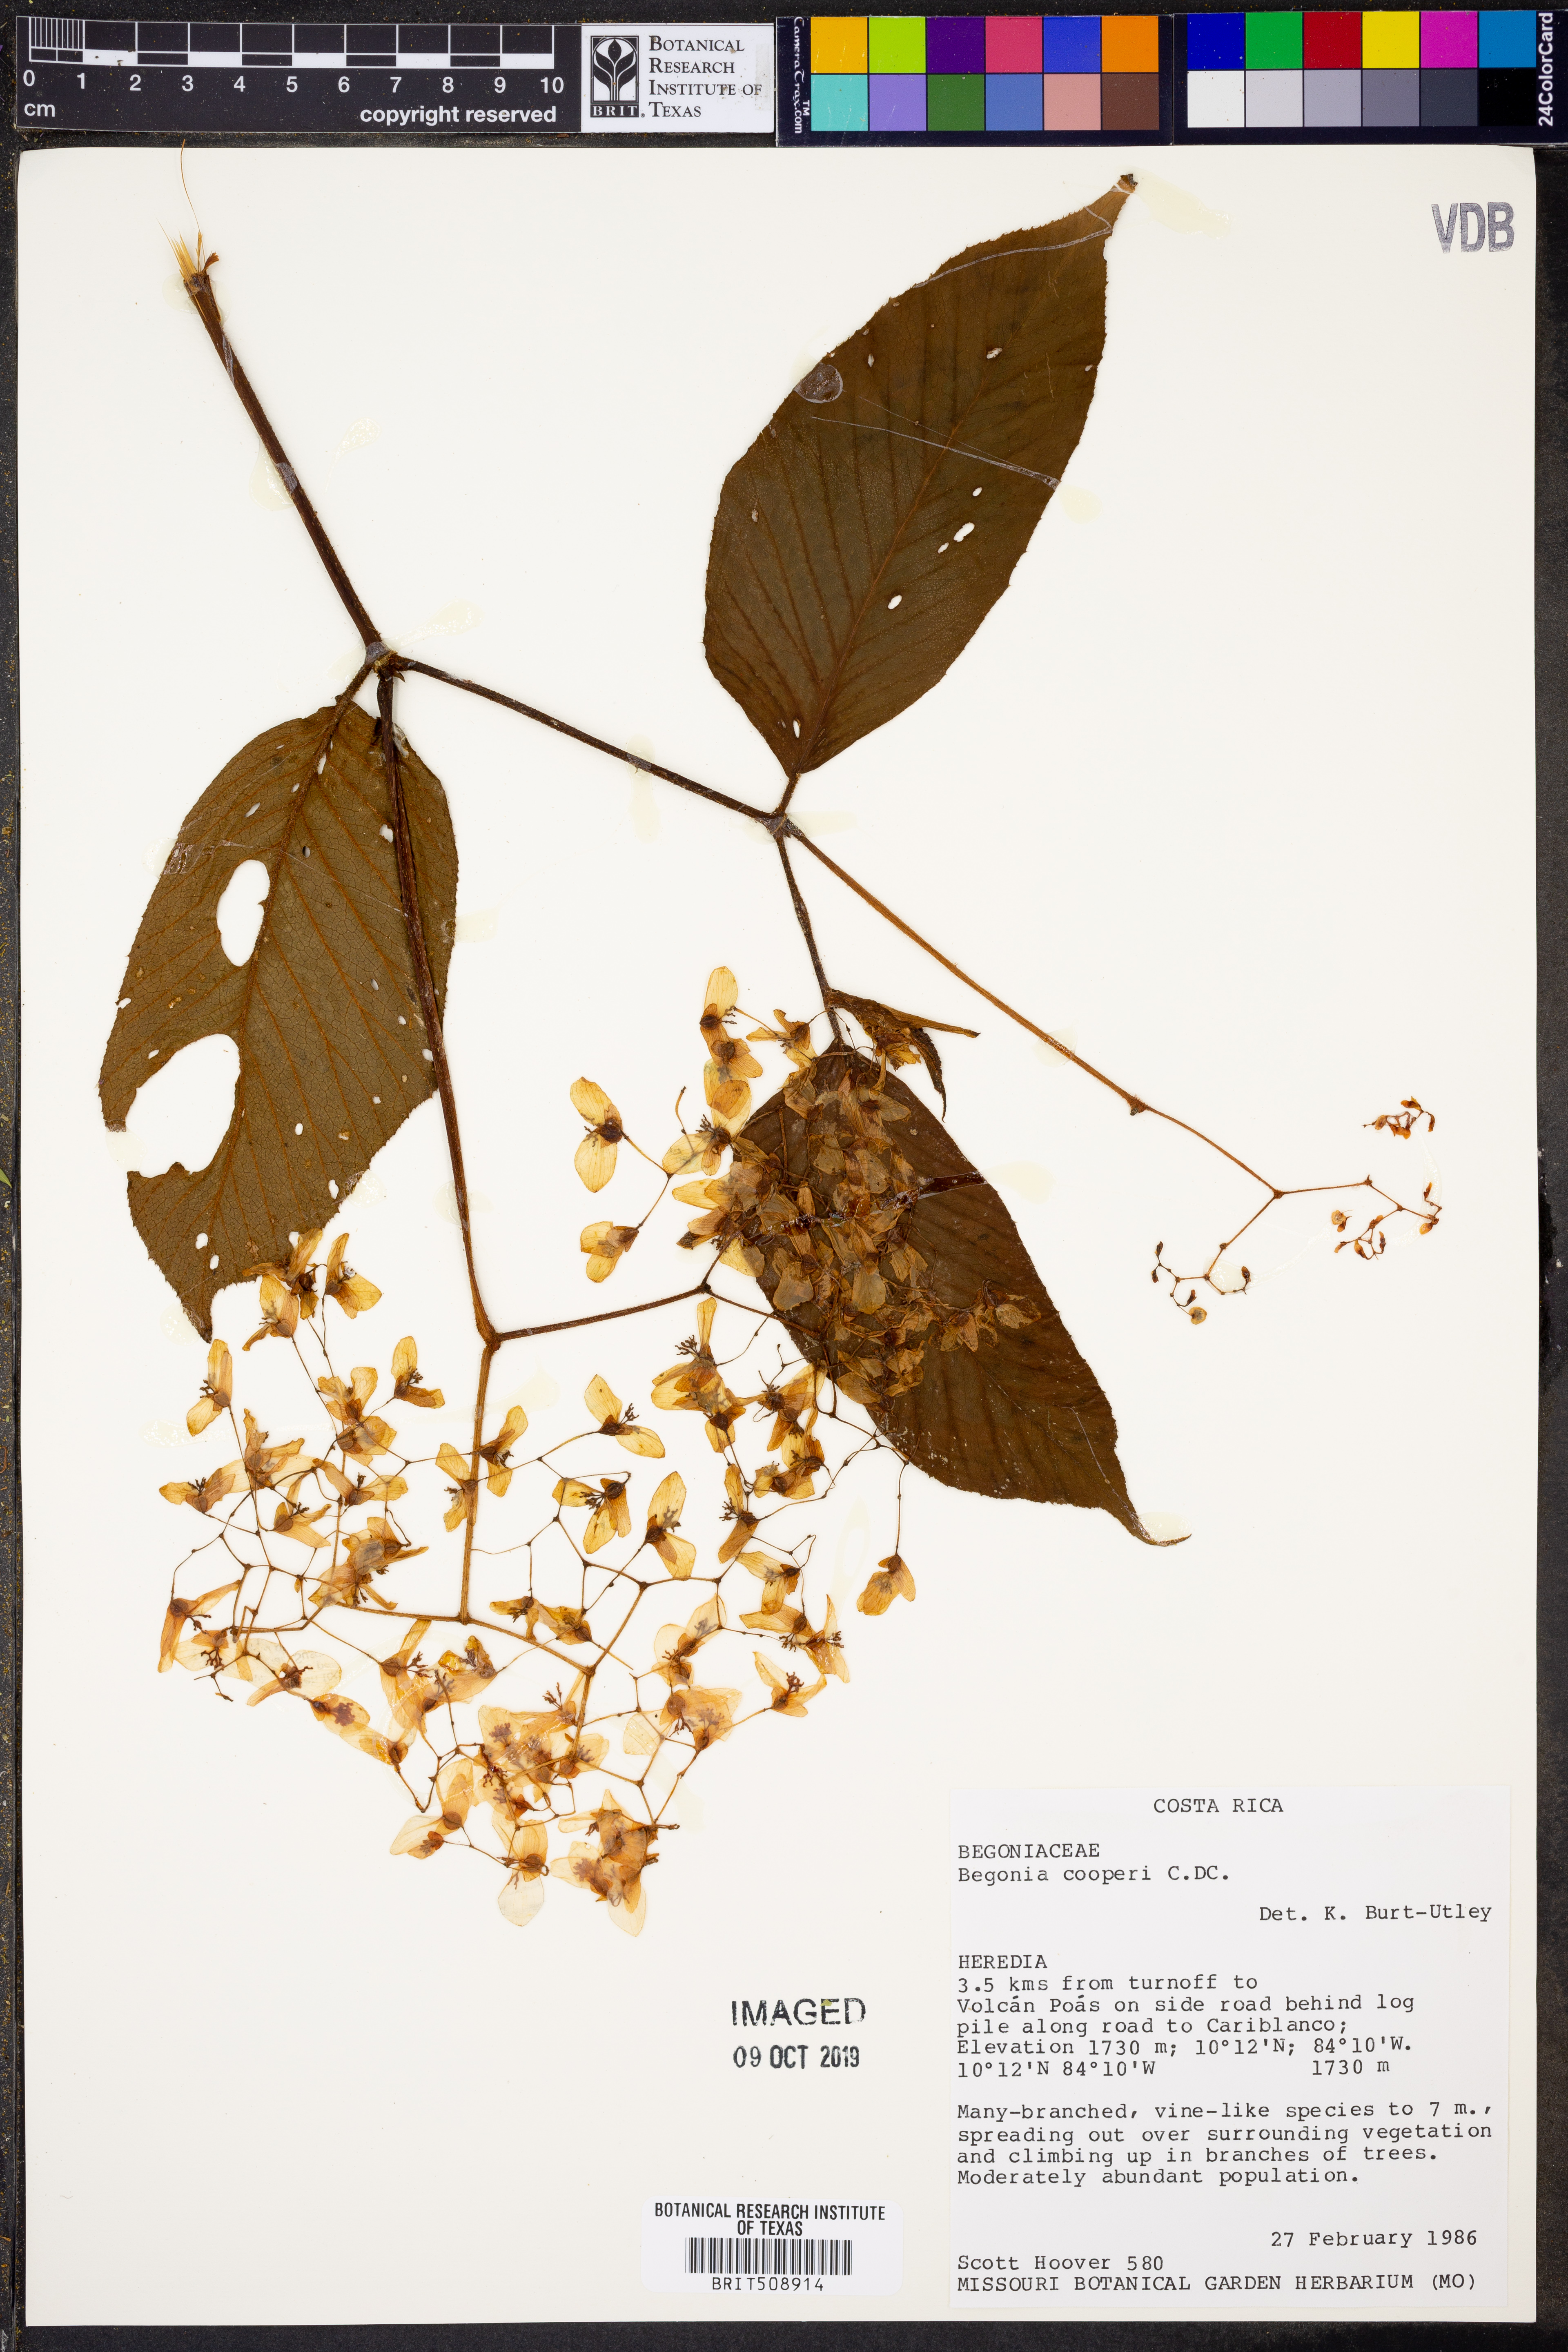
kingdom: Plantae
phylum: Tracheophyta
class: Magnoliopsida
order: Cucurbitales
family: Begoniaceae
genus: Begonia
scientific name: Begonia cooperi
